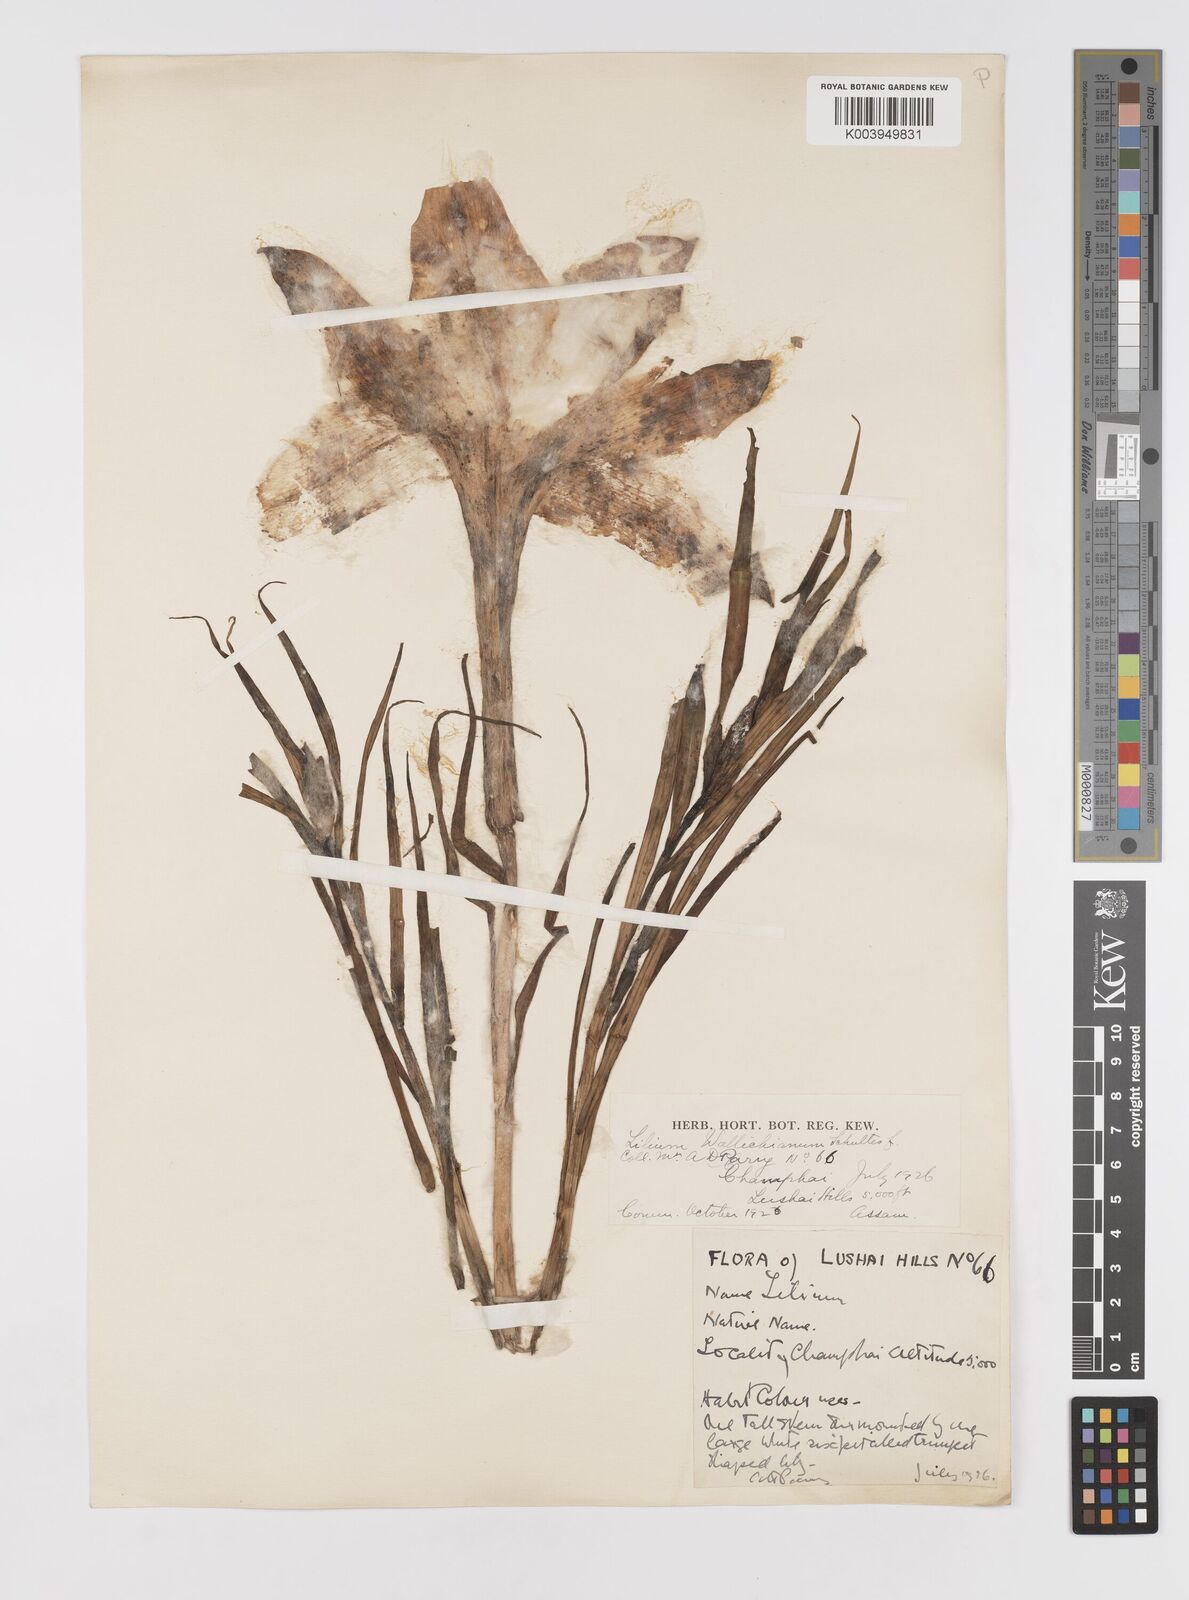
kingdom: Plantae
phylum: Tracheophyta
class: Liliopsida
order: Liliales
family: Liliaceae
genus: Lilium
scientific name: Lilium wallichianum
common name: Wallich's lily
